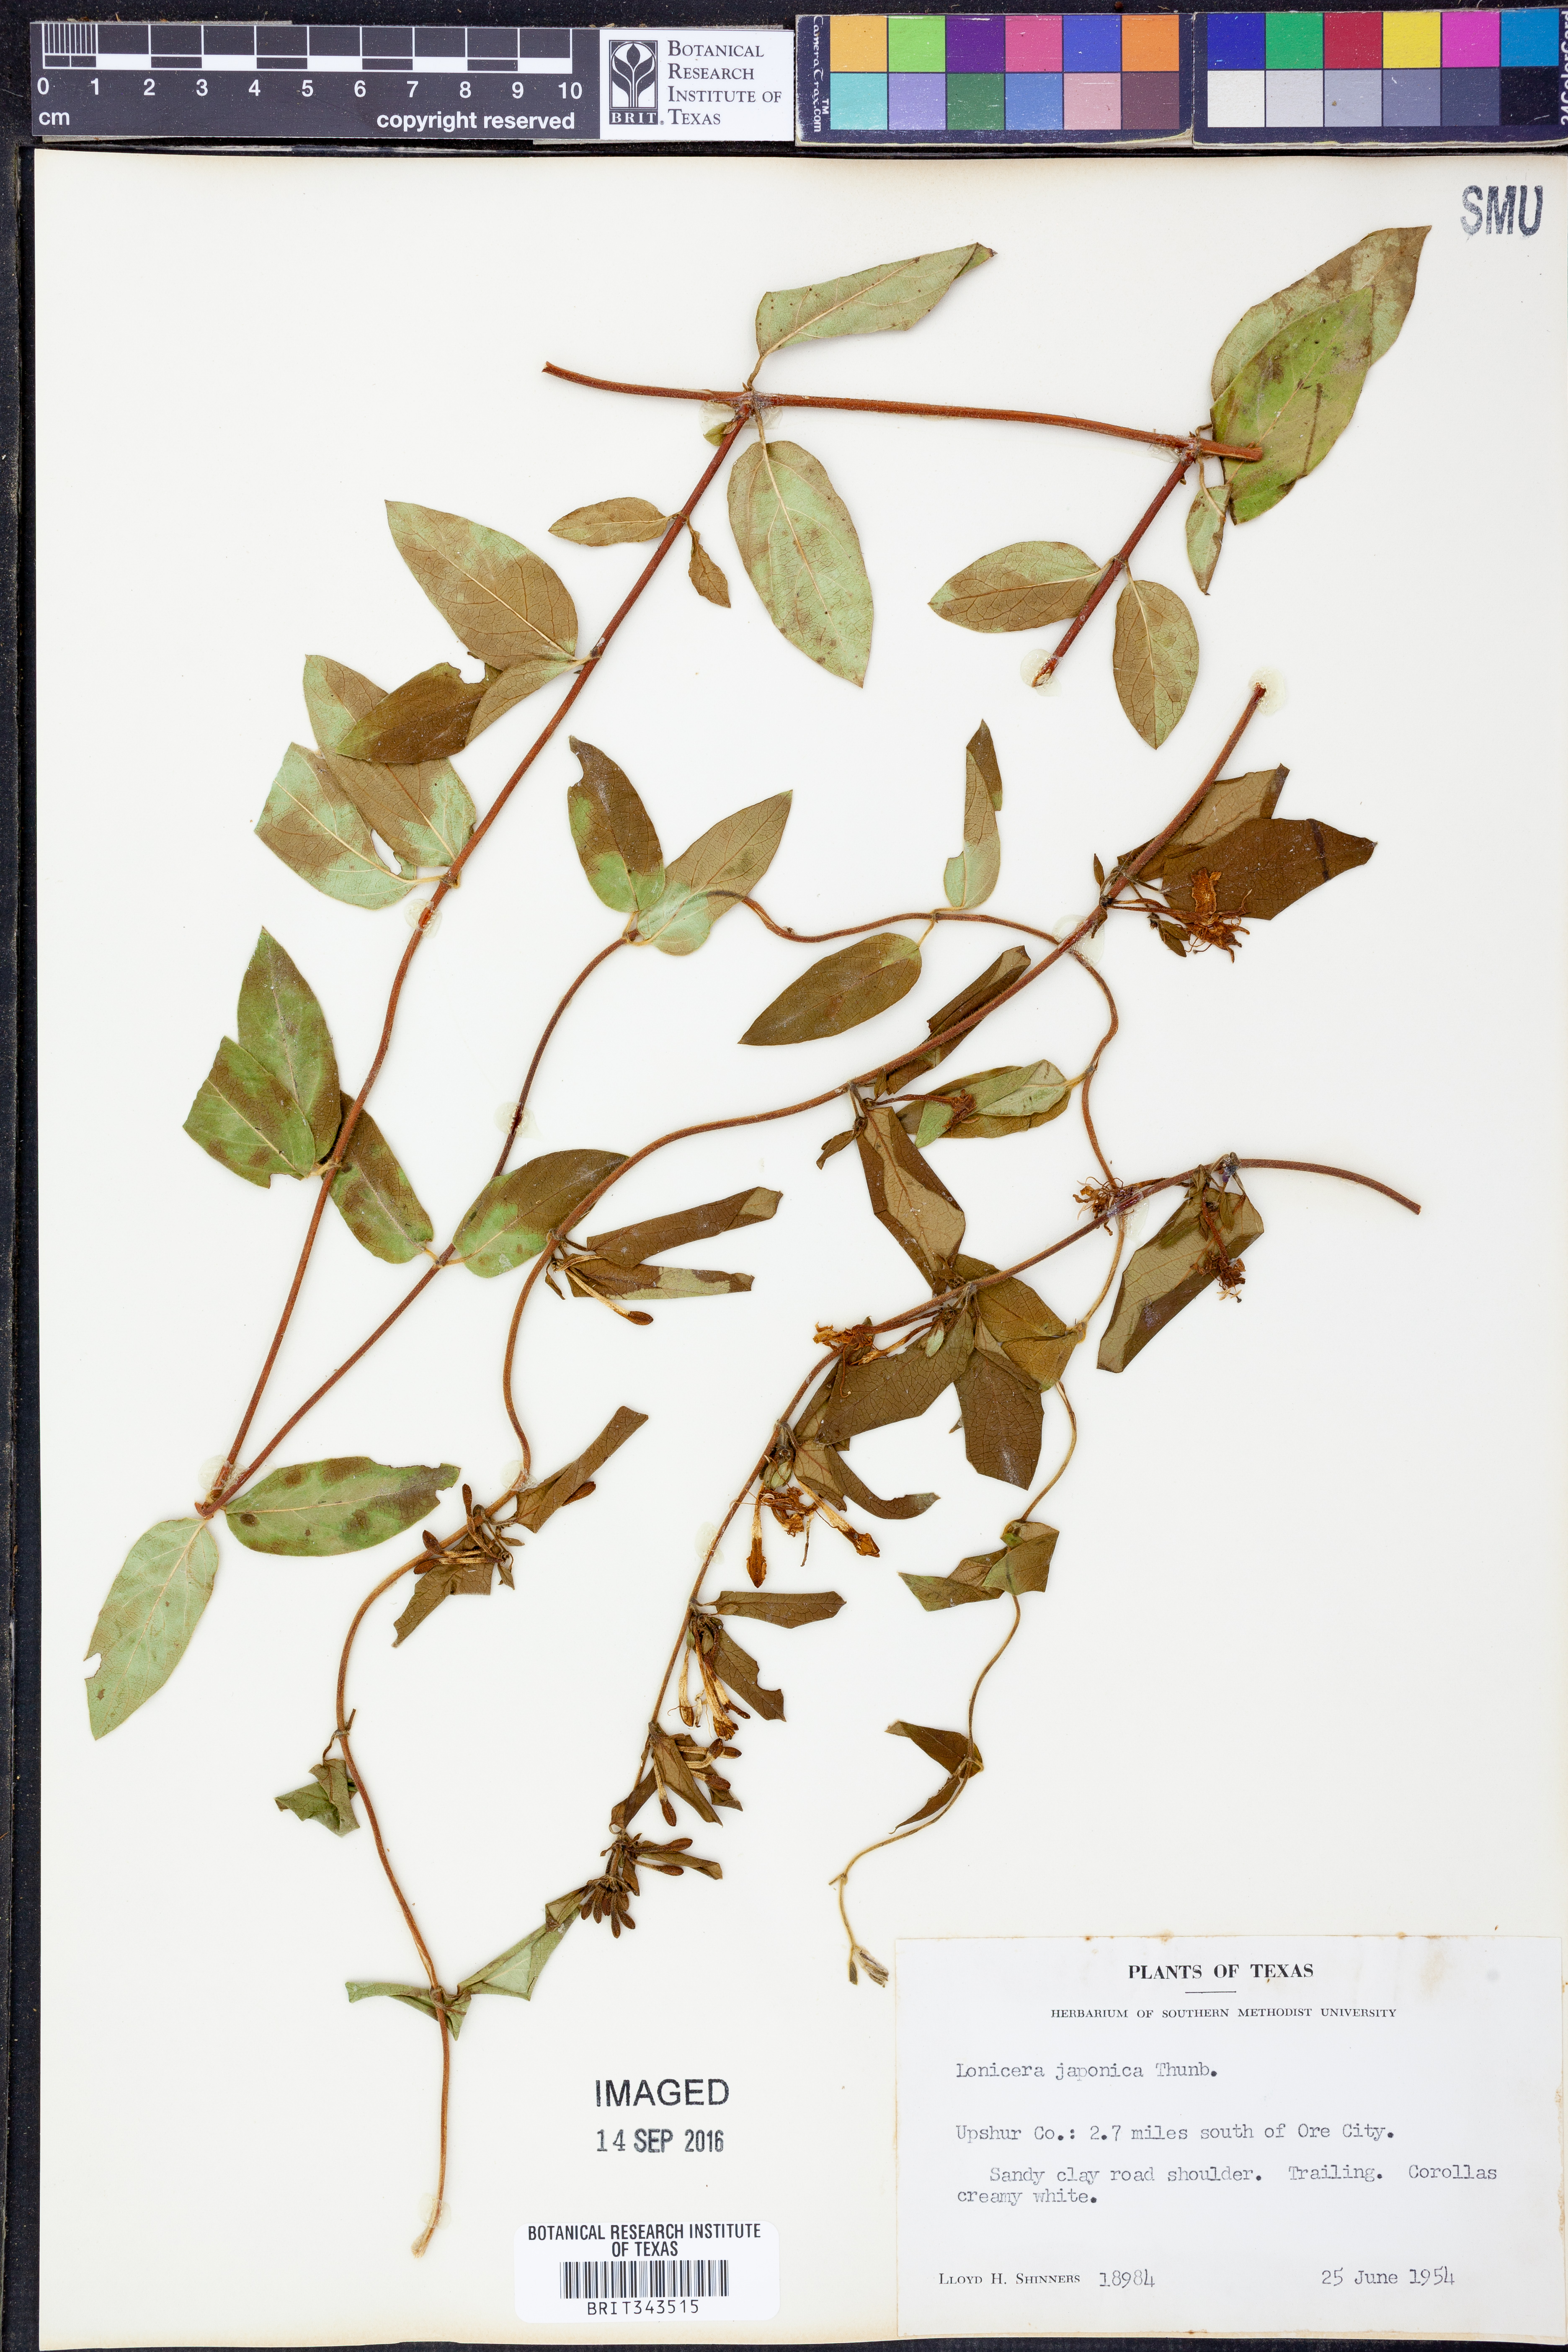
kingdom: Plantae
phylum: Tracheophyta
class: Magnoliopsida
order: Dipsacales
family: Caprifoliaceae
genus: Lonicera
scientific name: Lonicera japonica
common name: Japanese honeysuckle
